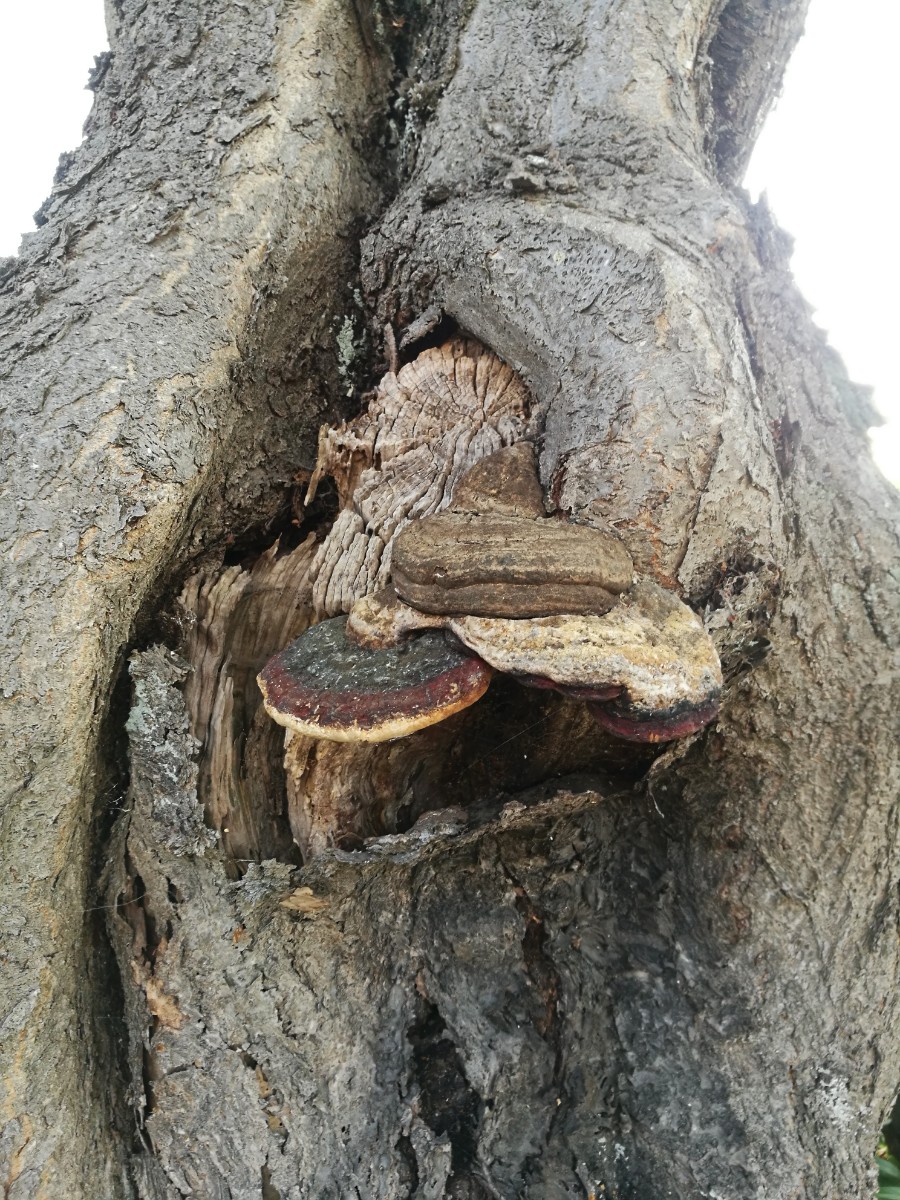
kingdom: Fungi
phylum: Basidiomycota
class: Agaricomycetes
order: Polyporales
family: Fomitopsidaceae
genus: Fomitopsis
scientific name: Fomitopsis pinicola
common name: randbæltet hovporesvamp
